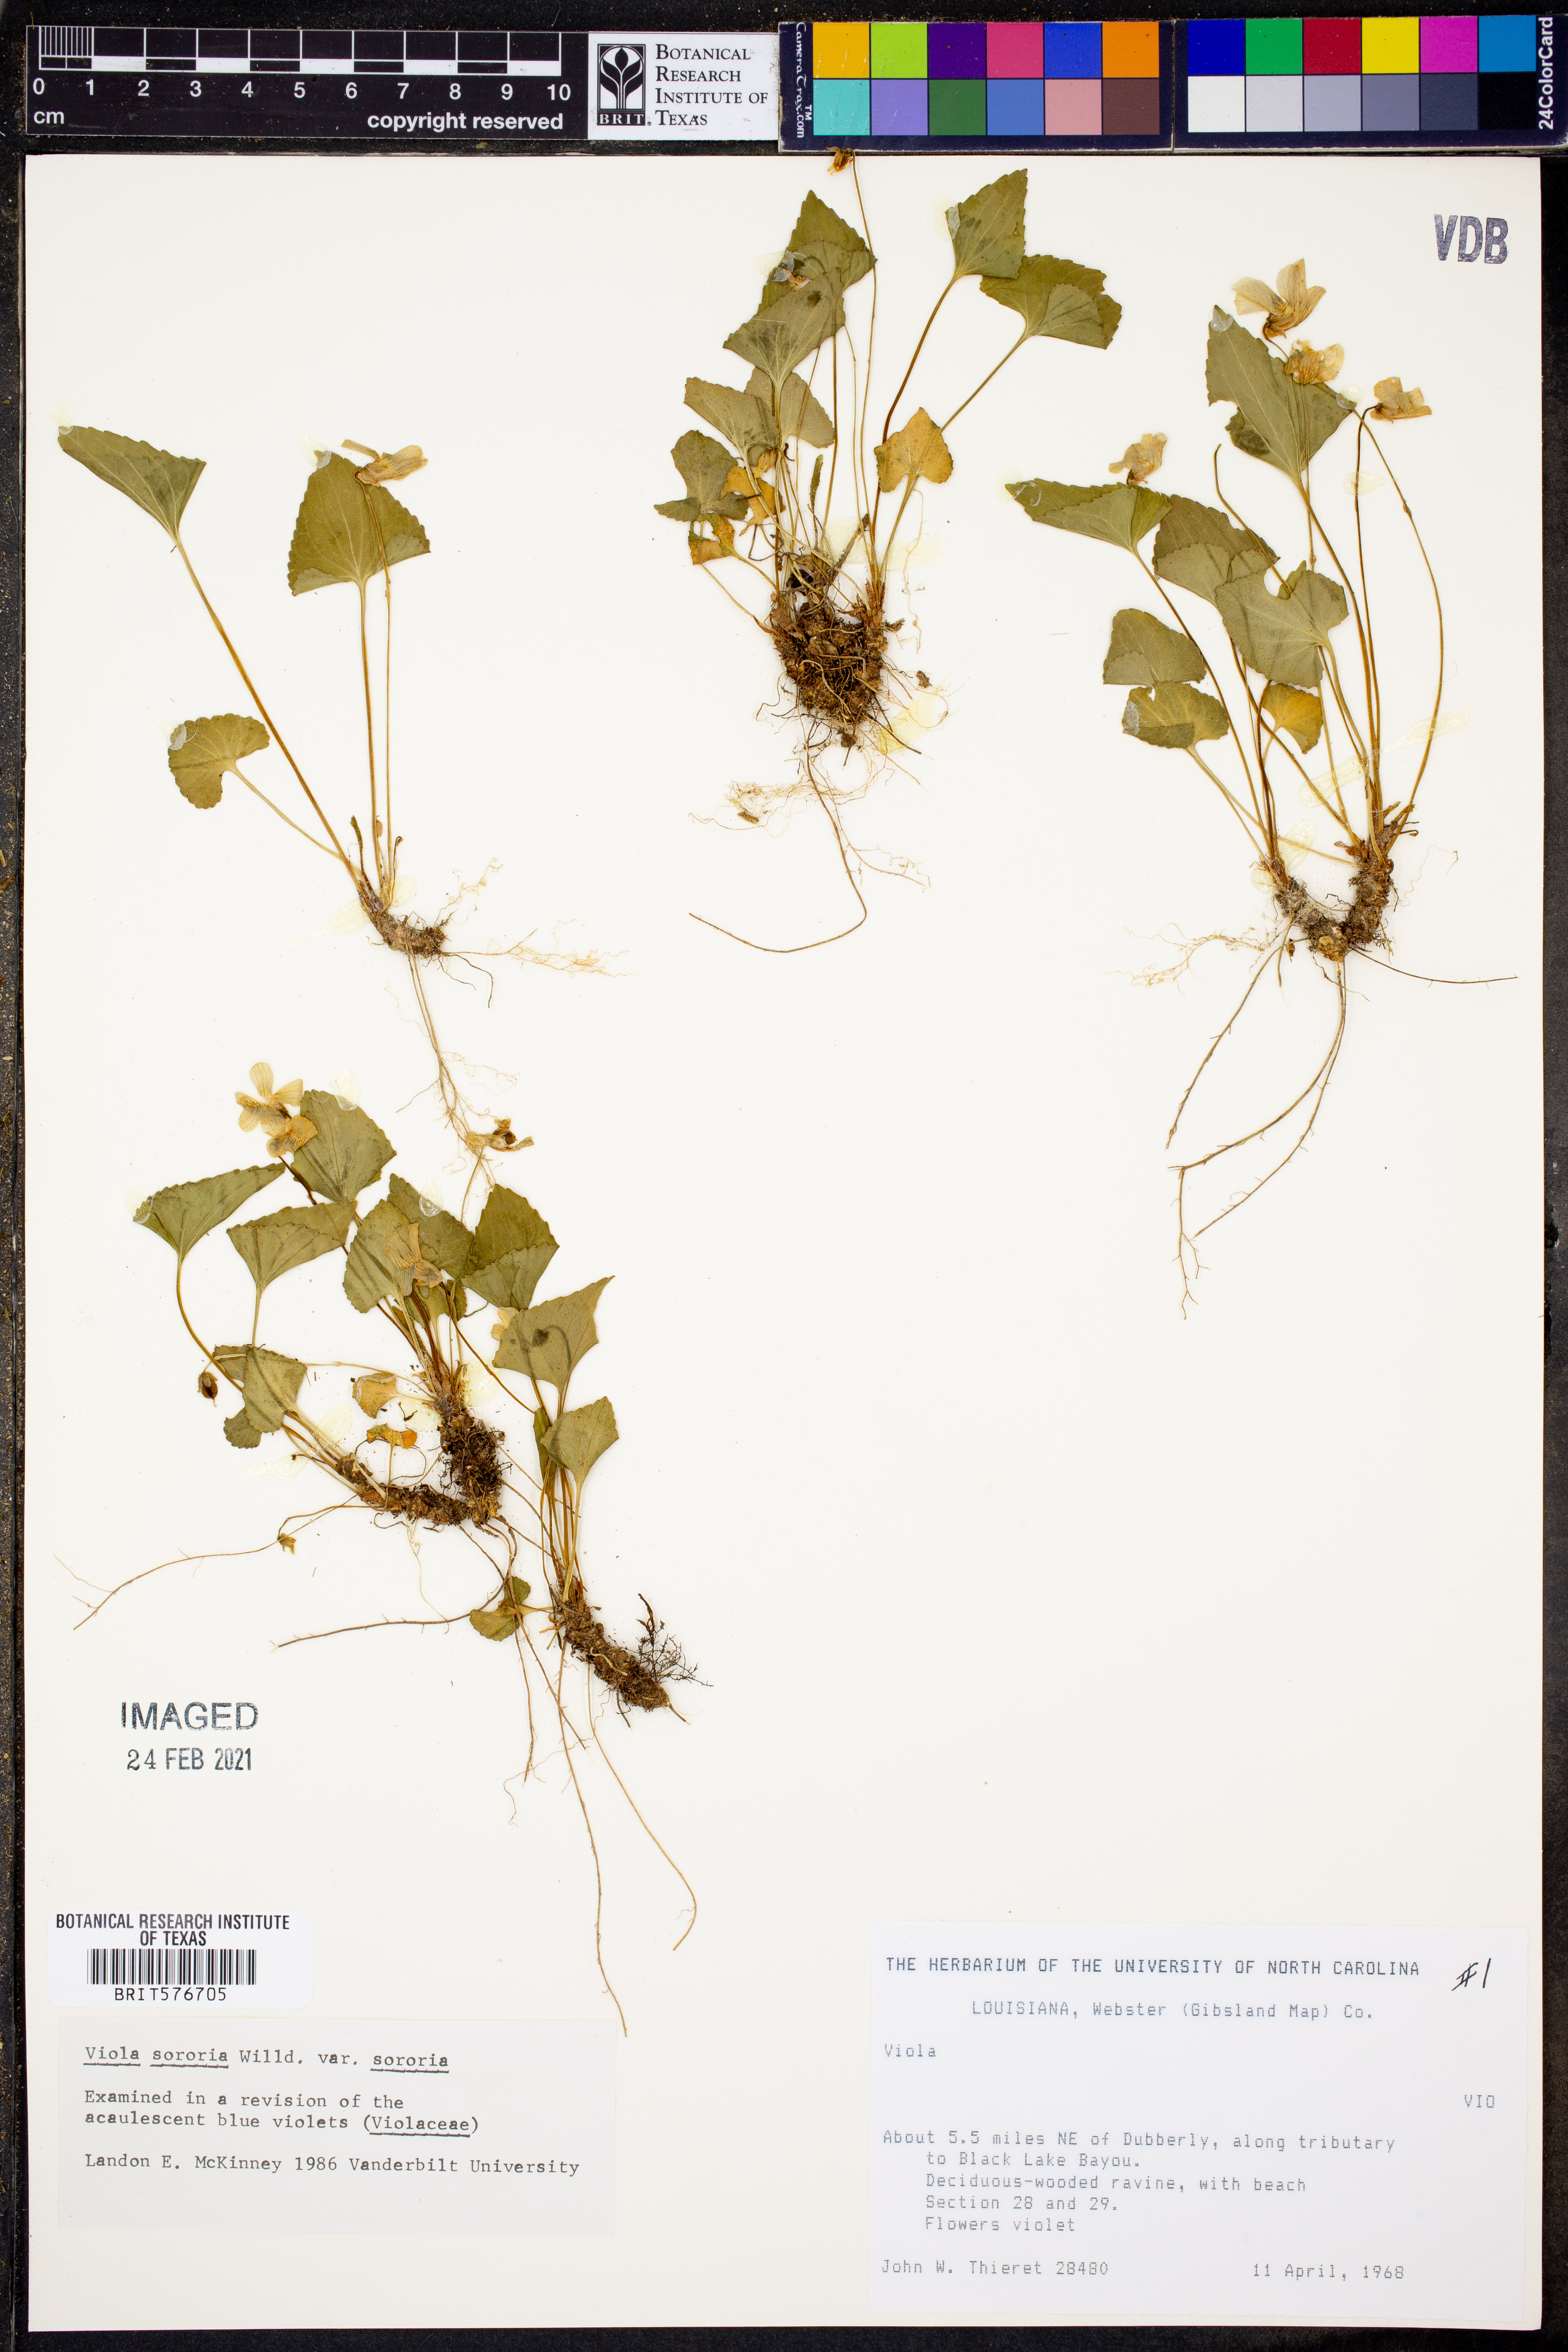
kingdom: Plantae
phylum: Tracheophyta
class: Magnoliopsida
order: Malpighiales
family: Violaceae
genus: Viola
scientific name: Viola sororia
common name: Dooryard violet
